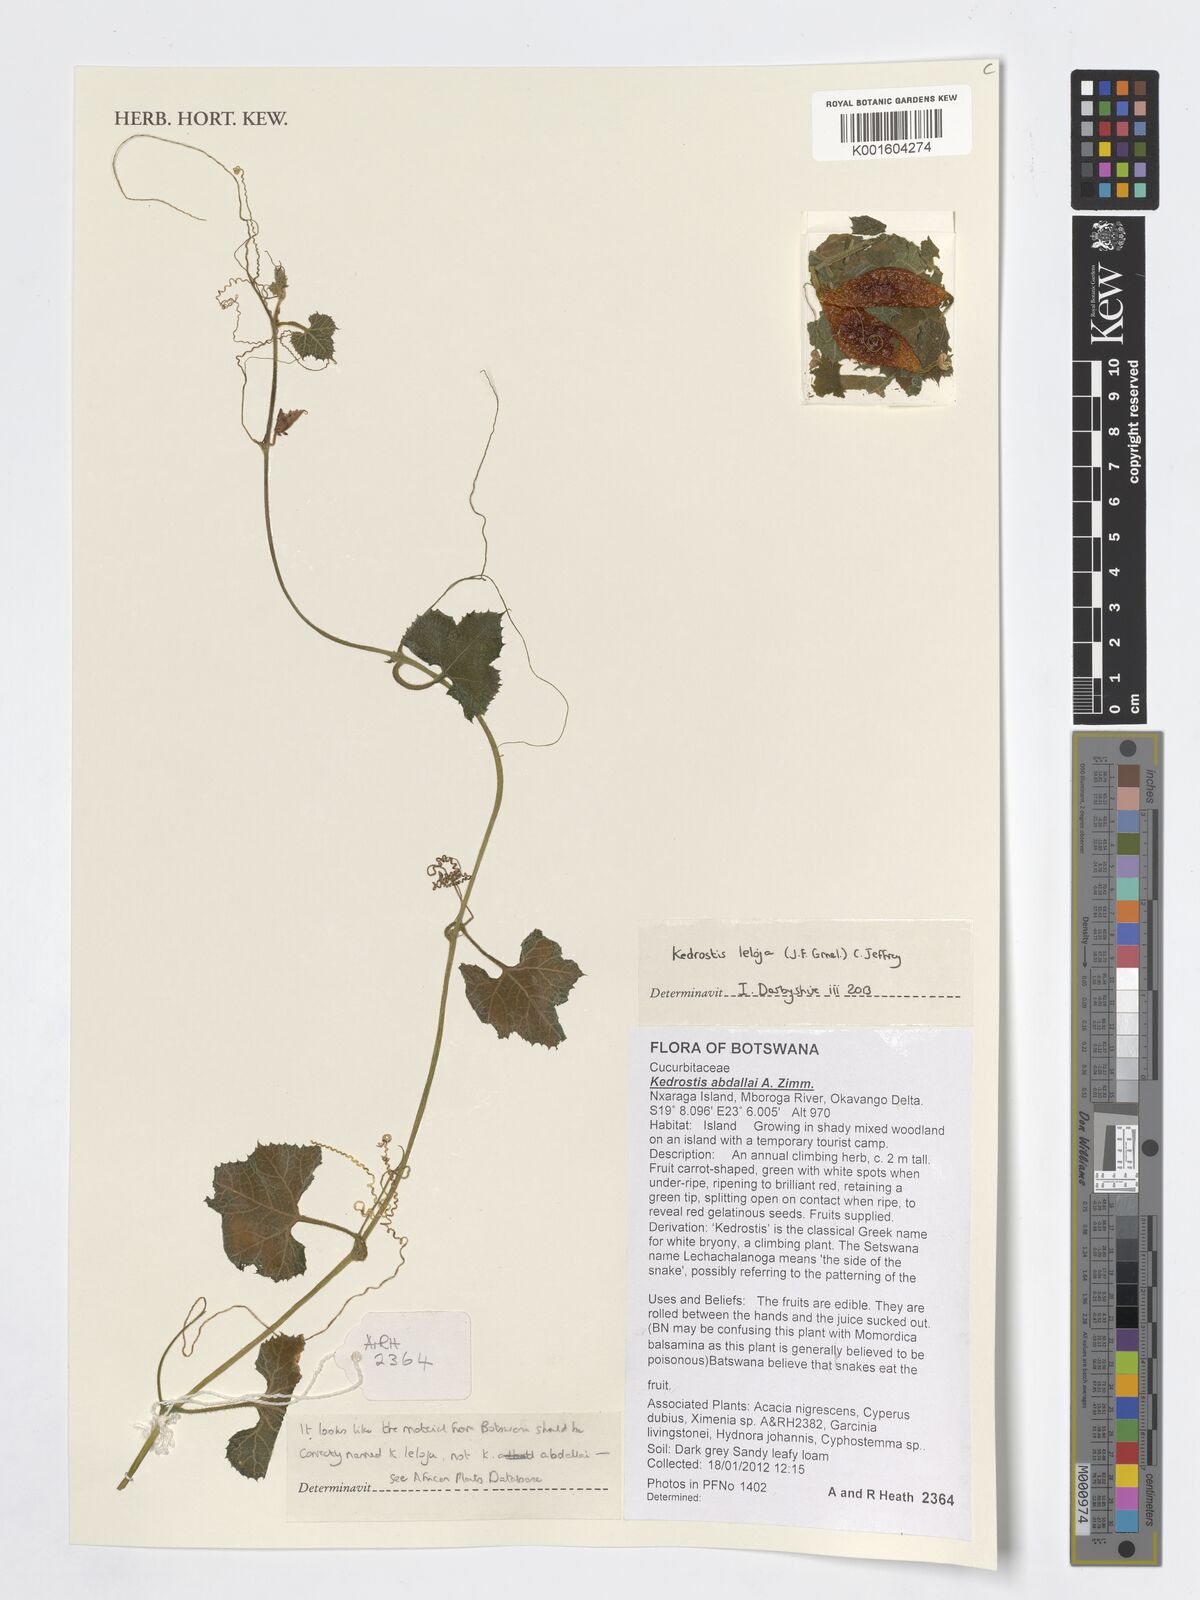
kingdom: Plantae
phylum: Tracheophyta
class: Magnoliopsida
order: Cucurbitales
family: Cucurbitaceae
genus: Kedrostis
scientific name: Kedrostis leloja
